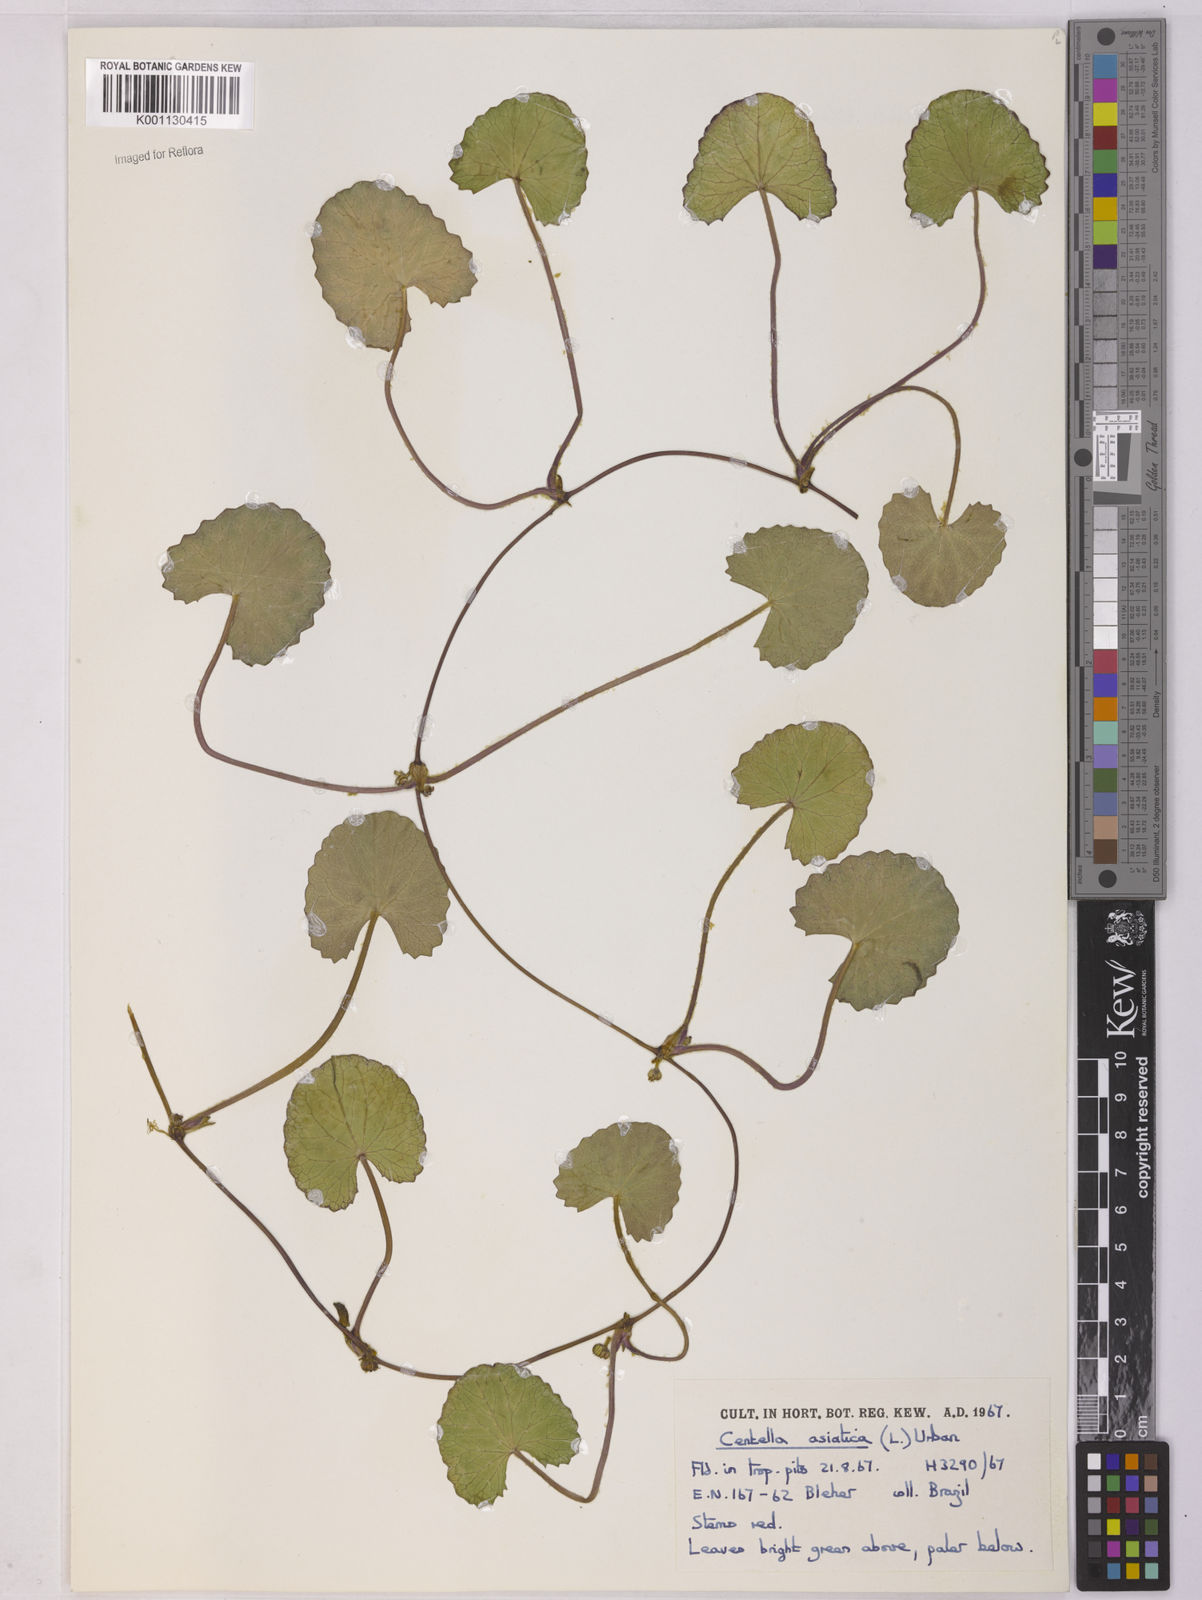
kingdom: Plantae
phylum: Tracheophyta
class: Magnoliopsida
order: Apiales
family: Apiaceae
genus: Centella
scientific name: Centella asiatica
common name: Spadeleaf
